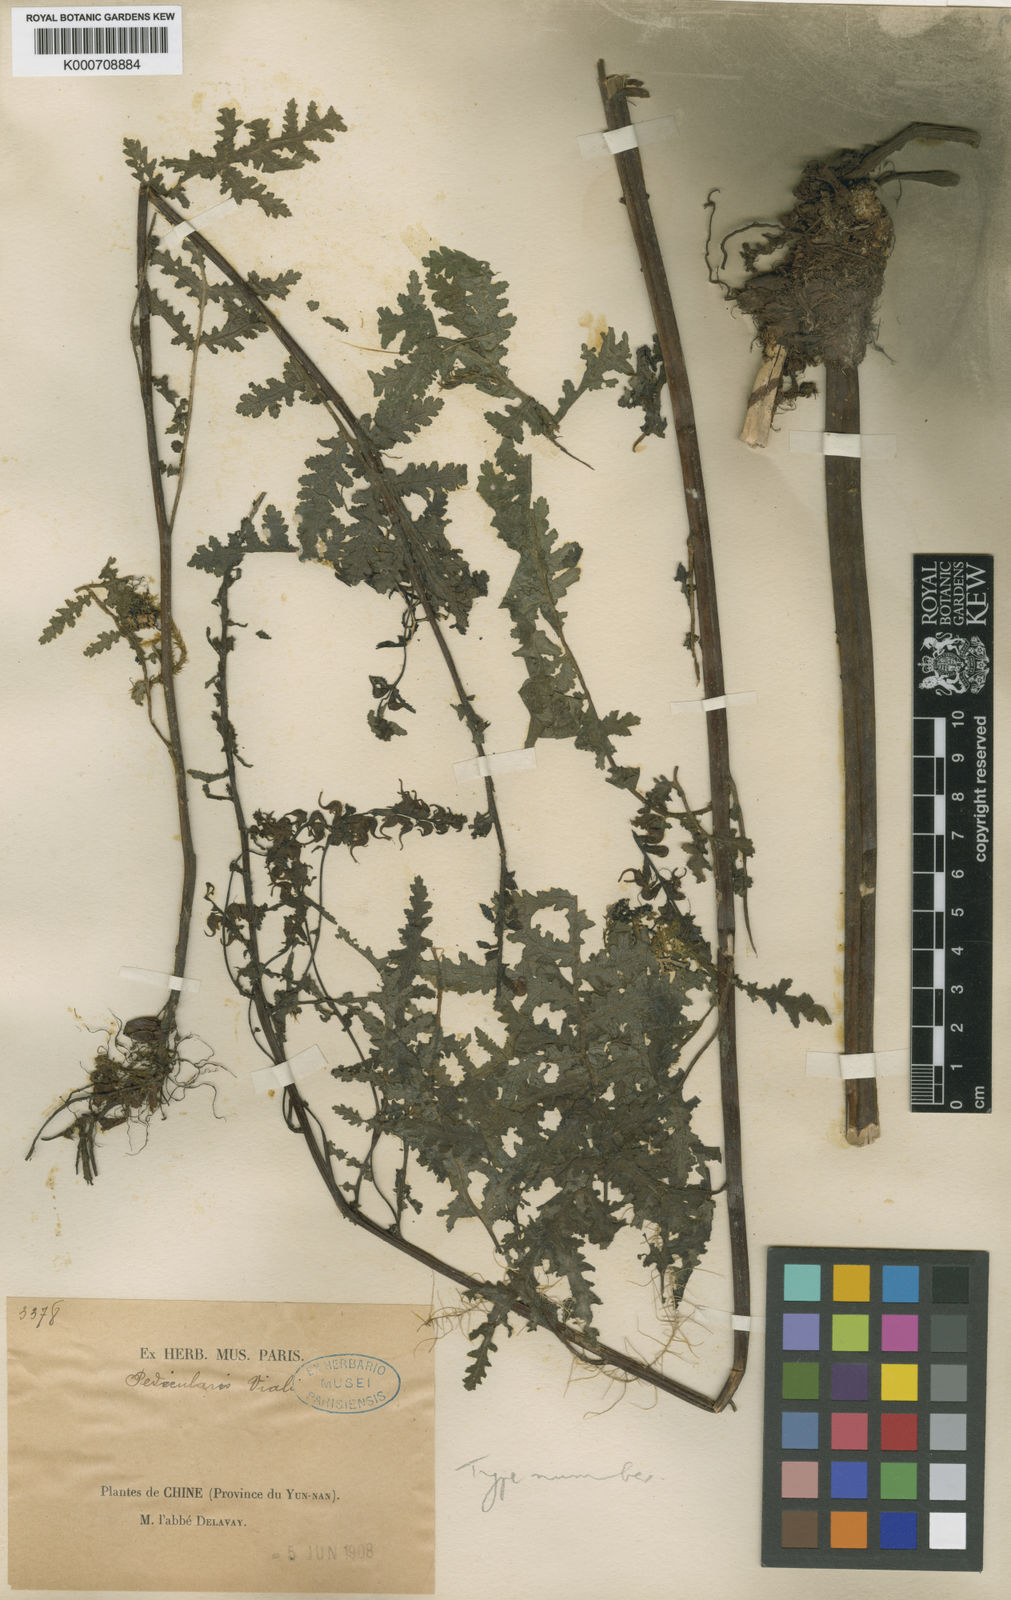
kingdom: Plantae
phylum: Tracheophyta
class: Magnoliopsida
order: Lamiales
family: Orobanchaceae
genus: Pedicularis
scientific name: Pedicularis
